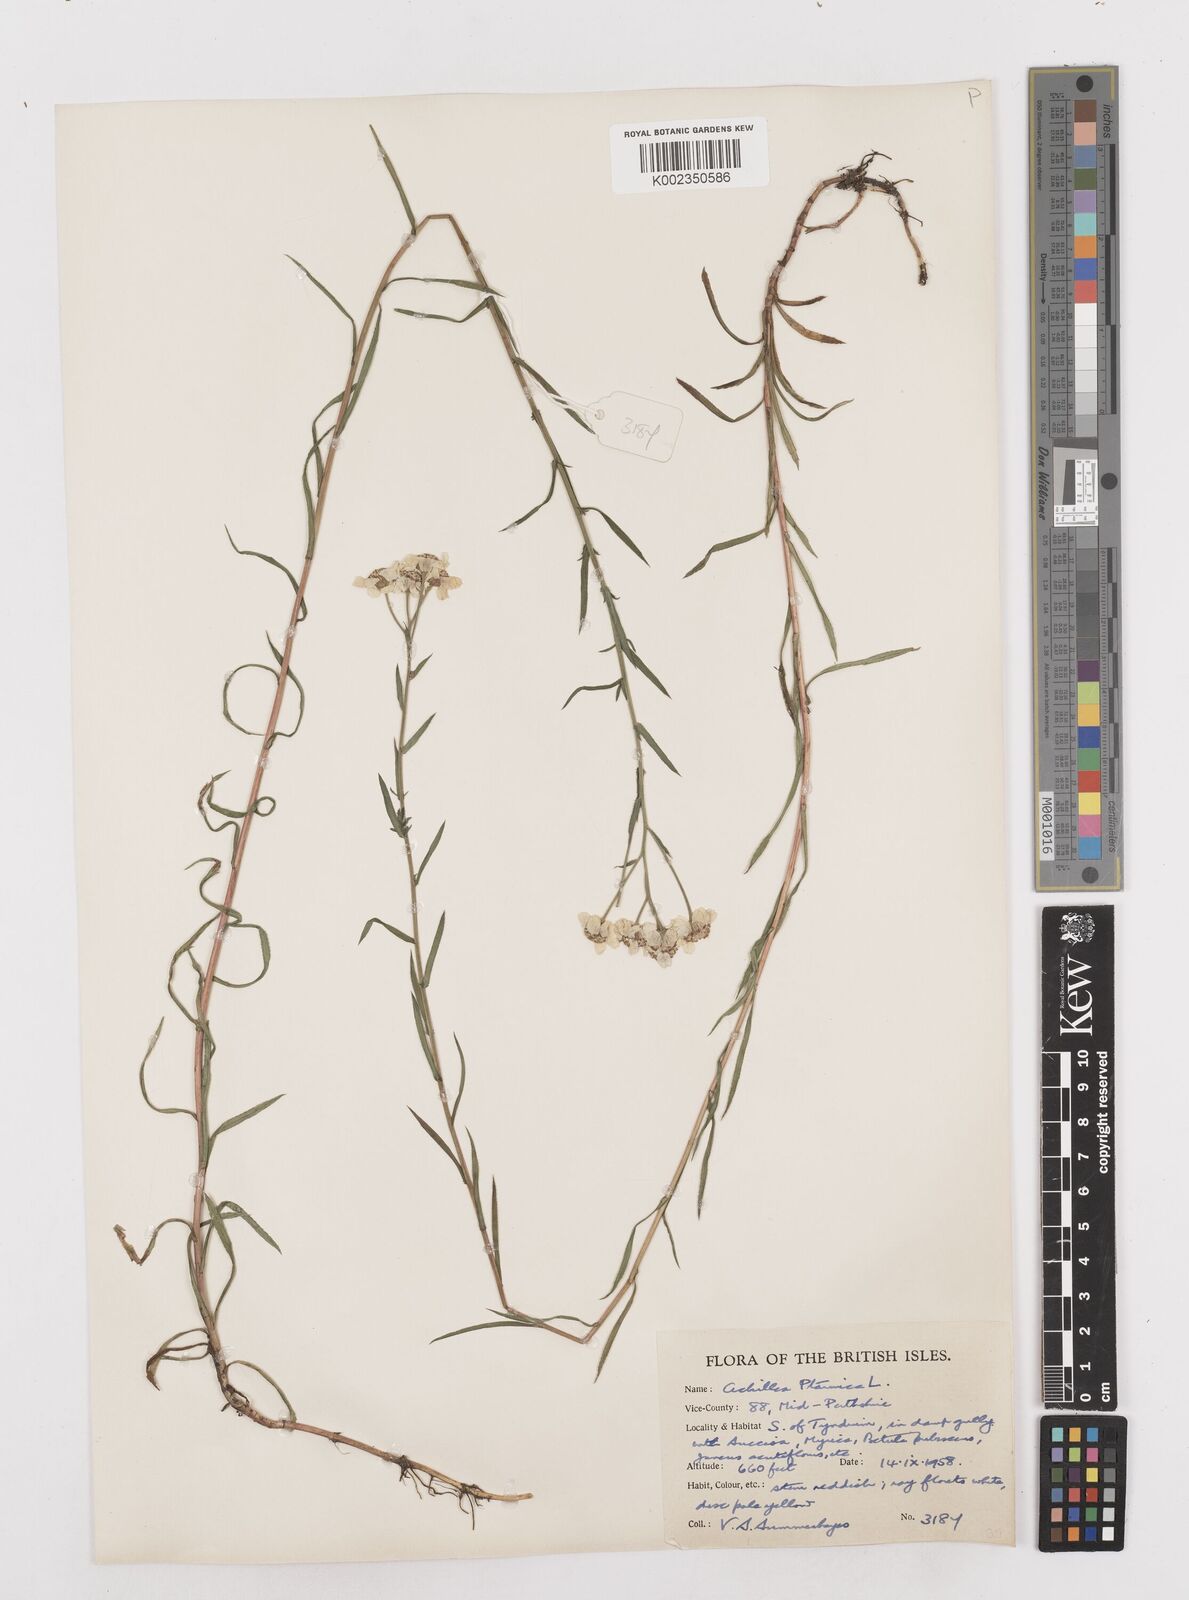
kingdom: Plantae
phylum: Tracheophyta
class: Magnoliopsida
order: Asterales
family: Asteraceae
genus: Achillea
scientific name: Achillea
